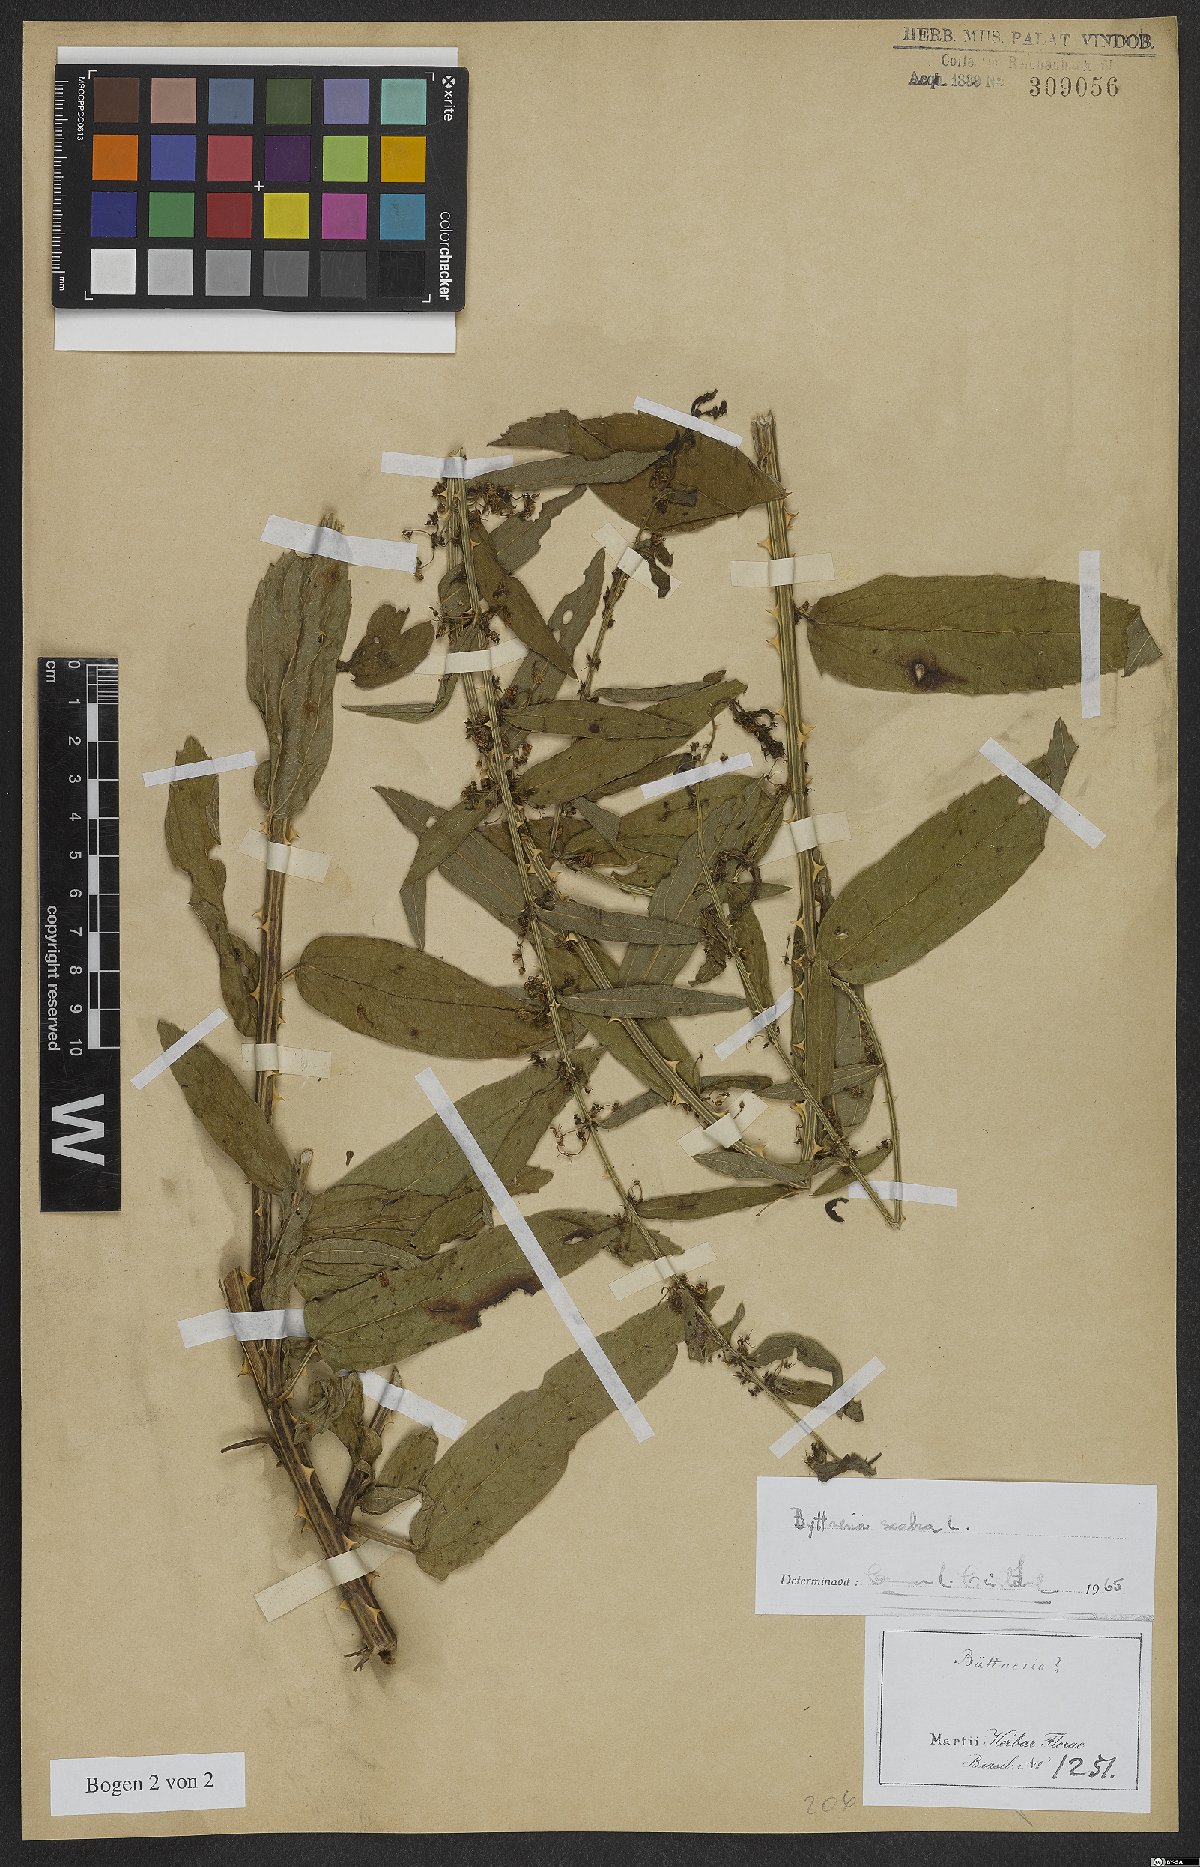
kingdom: Plantae
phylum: Tracheophyta
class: Magnoliopsida
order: Malvales
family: Malvaceae
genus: Byttneria
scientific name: Byttneria
